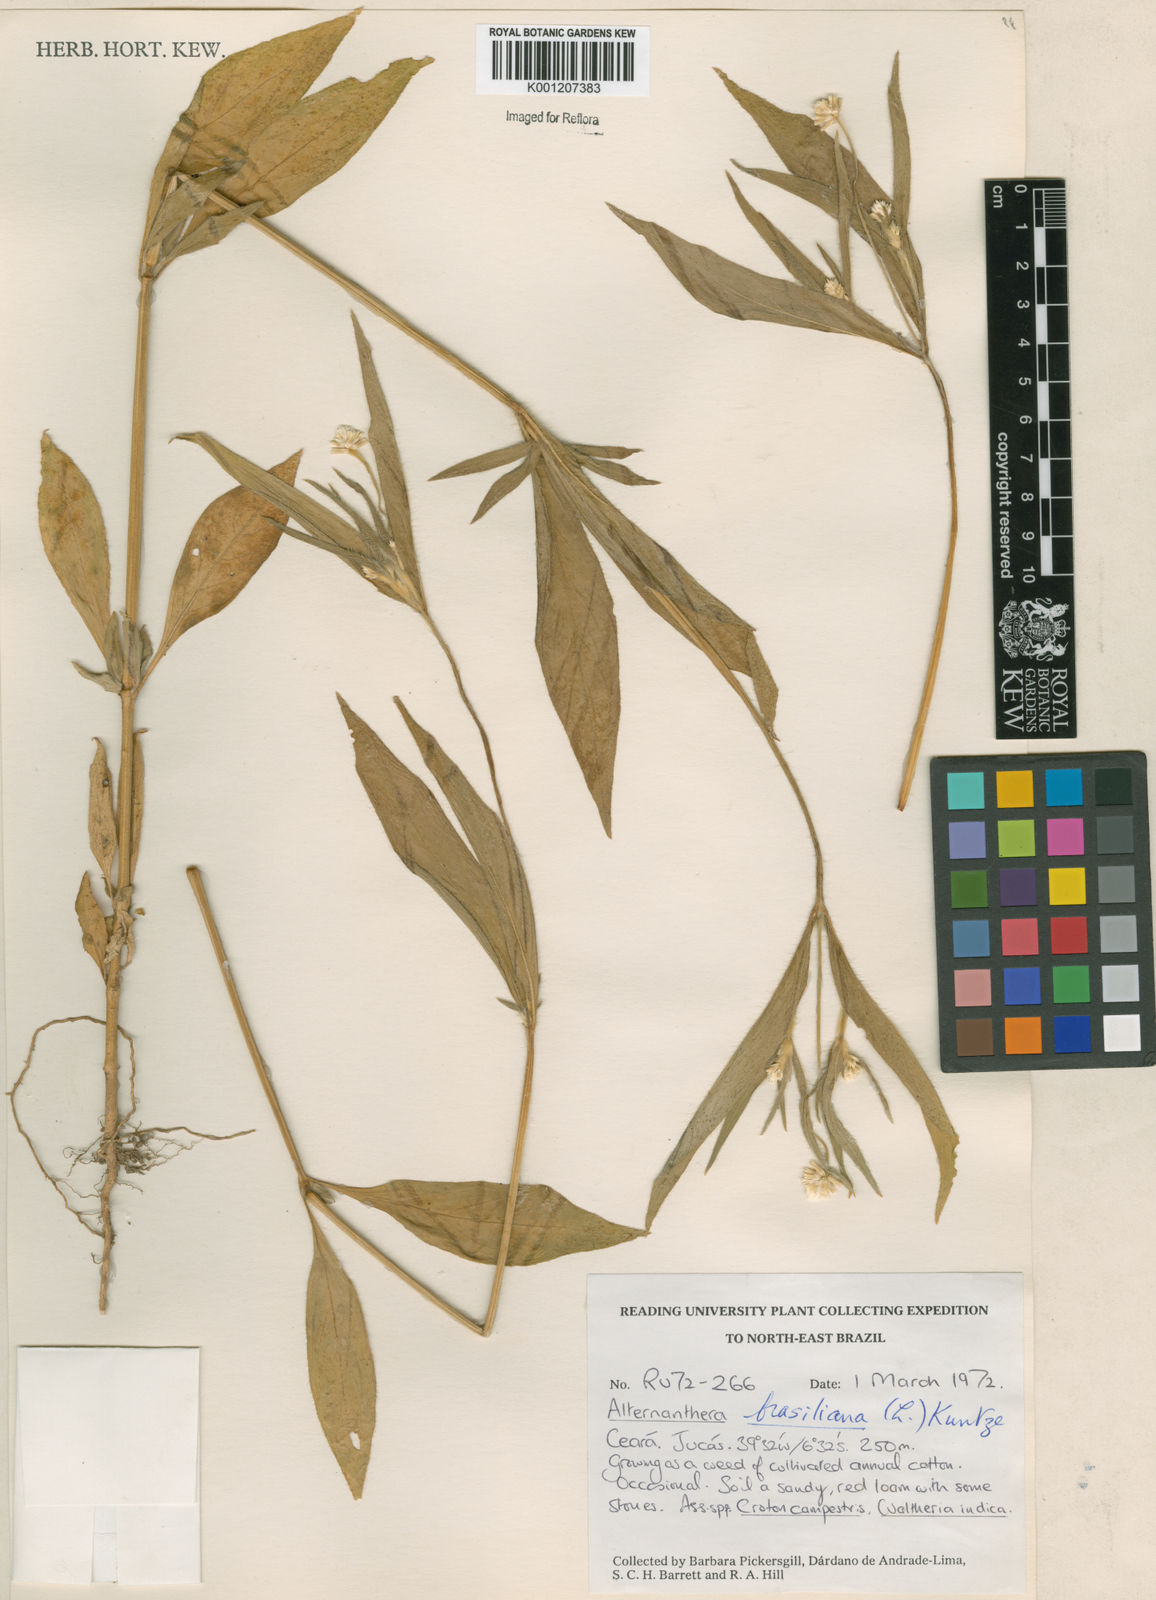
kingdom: Plantae
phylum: Tracheophyta
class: Magnoliopsida
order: Caryophyllales
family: Amaranthaceae
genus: Alternanthera
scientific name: Alternanthera ramosissima
